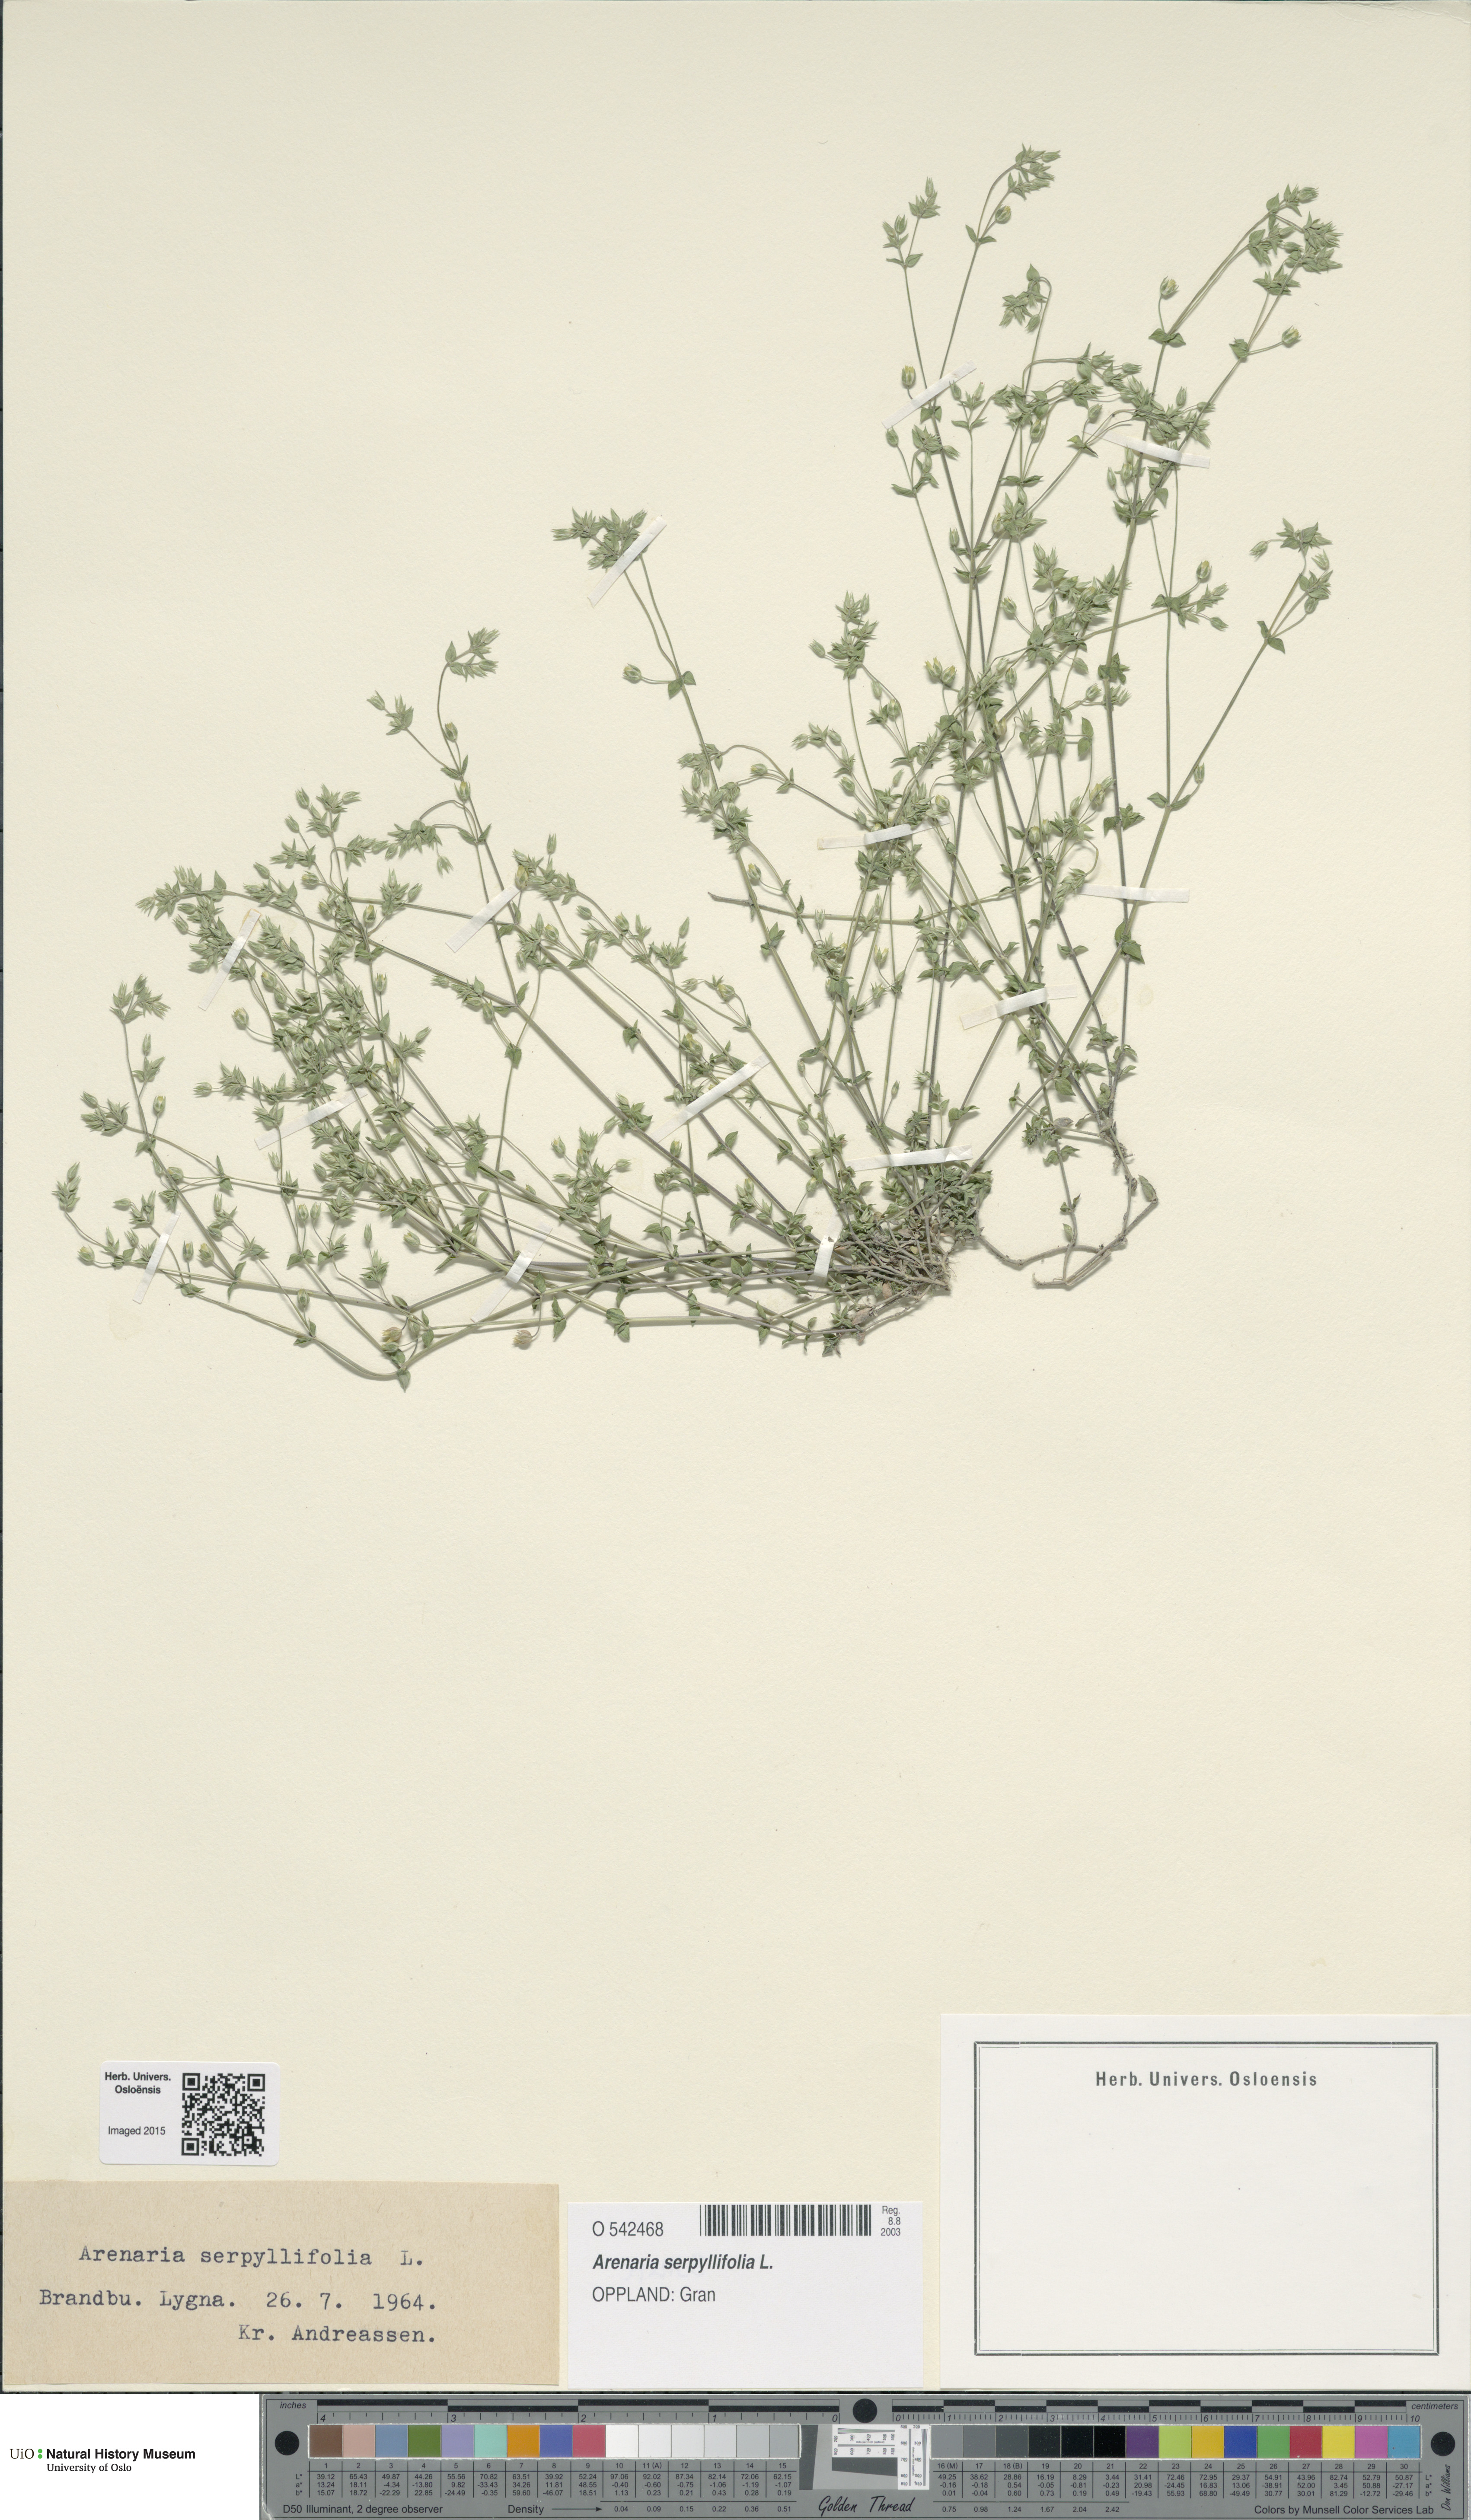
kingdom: Plantae
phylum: Tracheophyta
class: Magnoliopsida
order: Caryophyllales
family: Caryophyllaceae
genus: Arenaria
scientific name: Arenaria serpyllifolia
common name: Thyme-leaved sandwort
